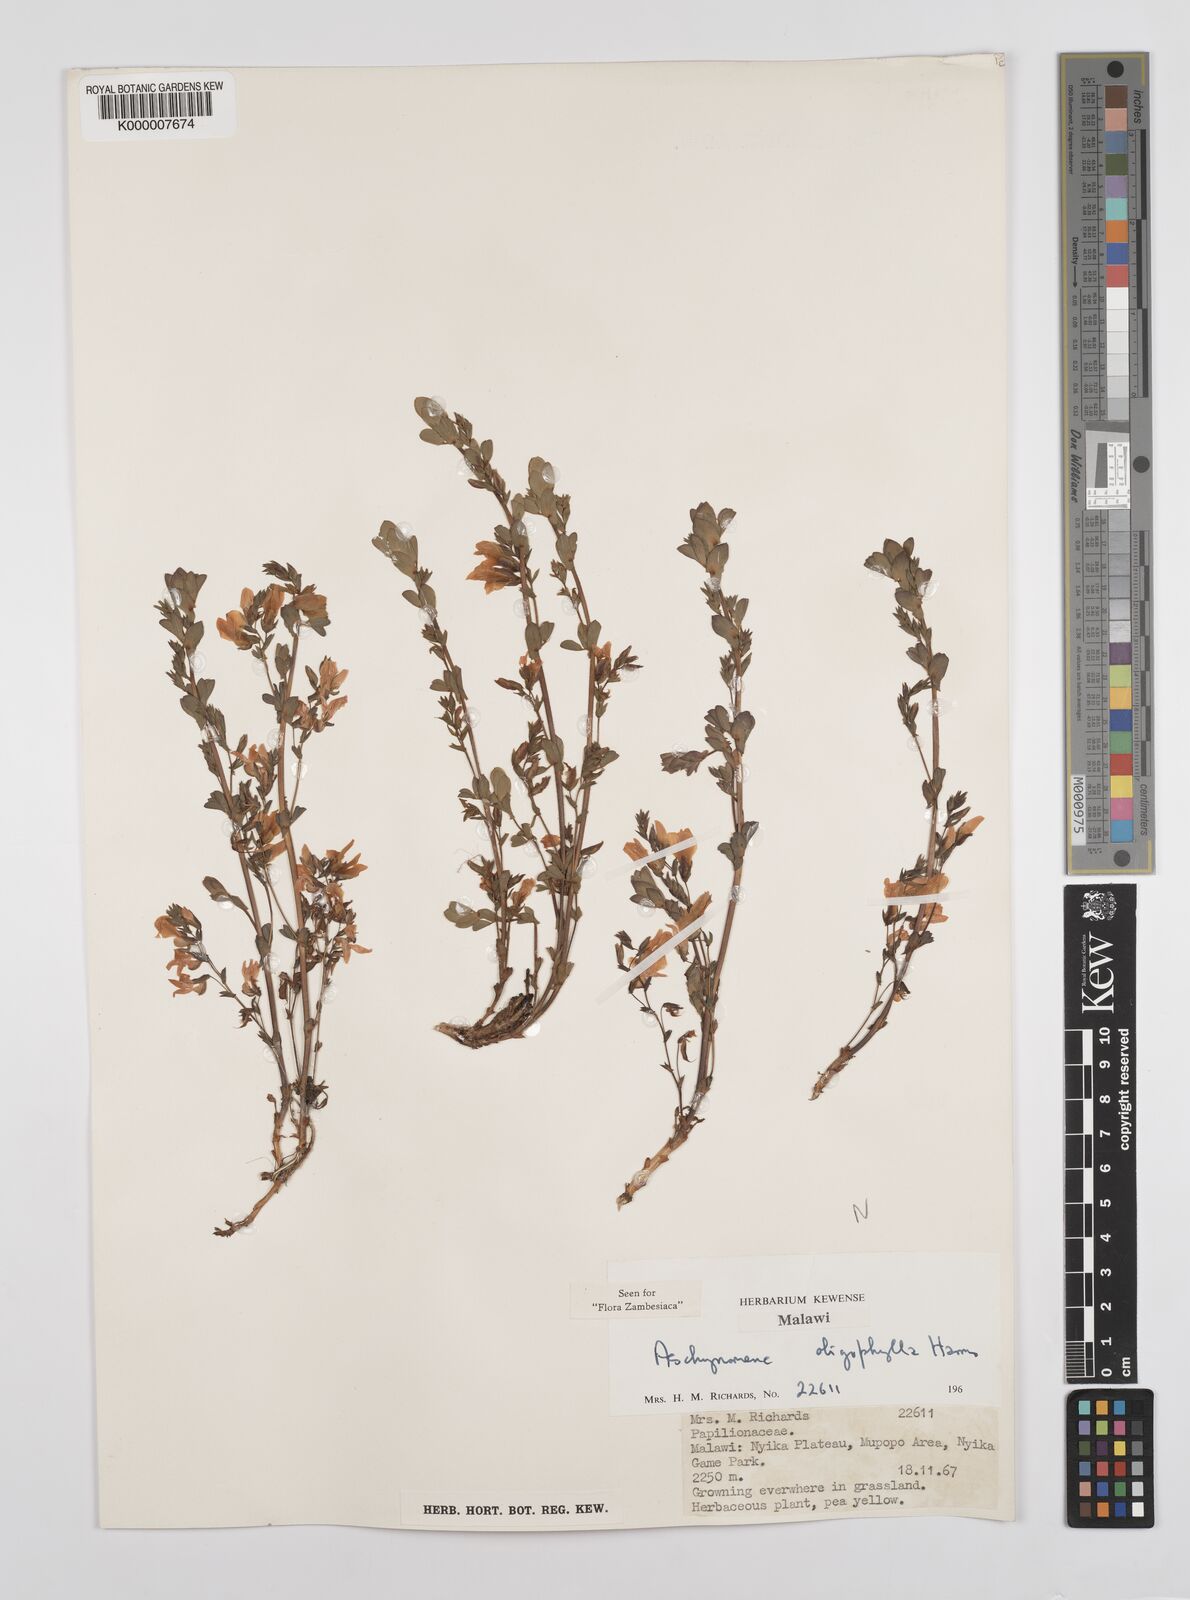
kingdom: Plantae
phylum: Tracheophyta
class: Magnoliopsida
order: Fabales
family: Fabaceae
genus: Aeschynomene
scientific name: Aeschynomene oligophylla
